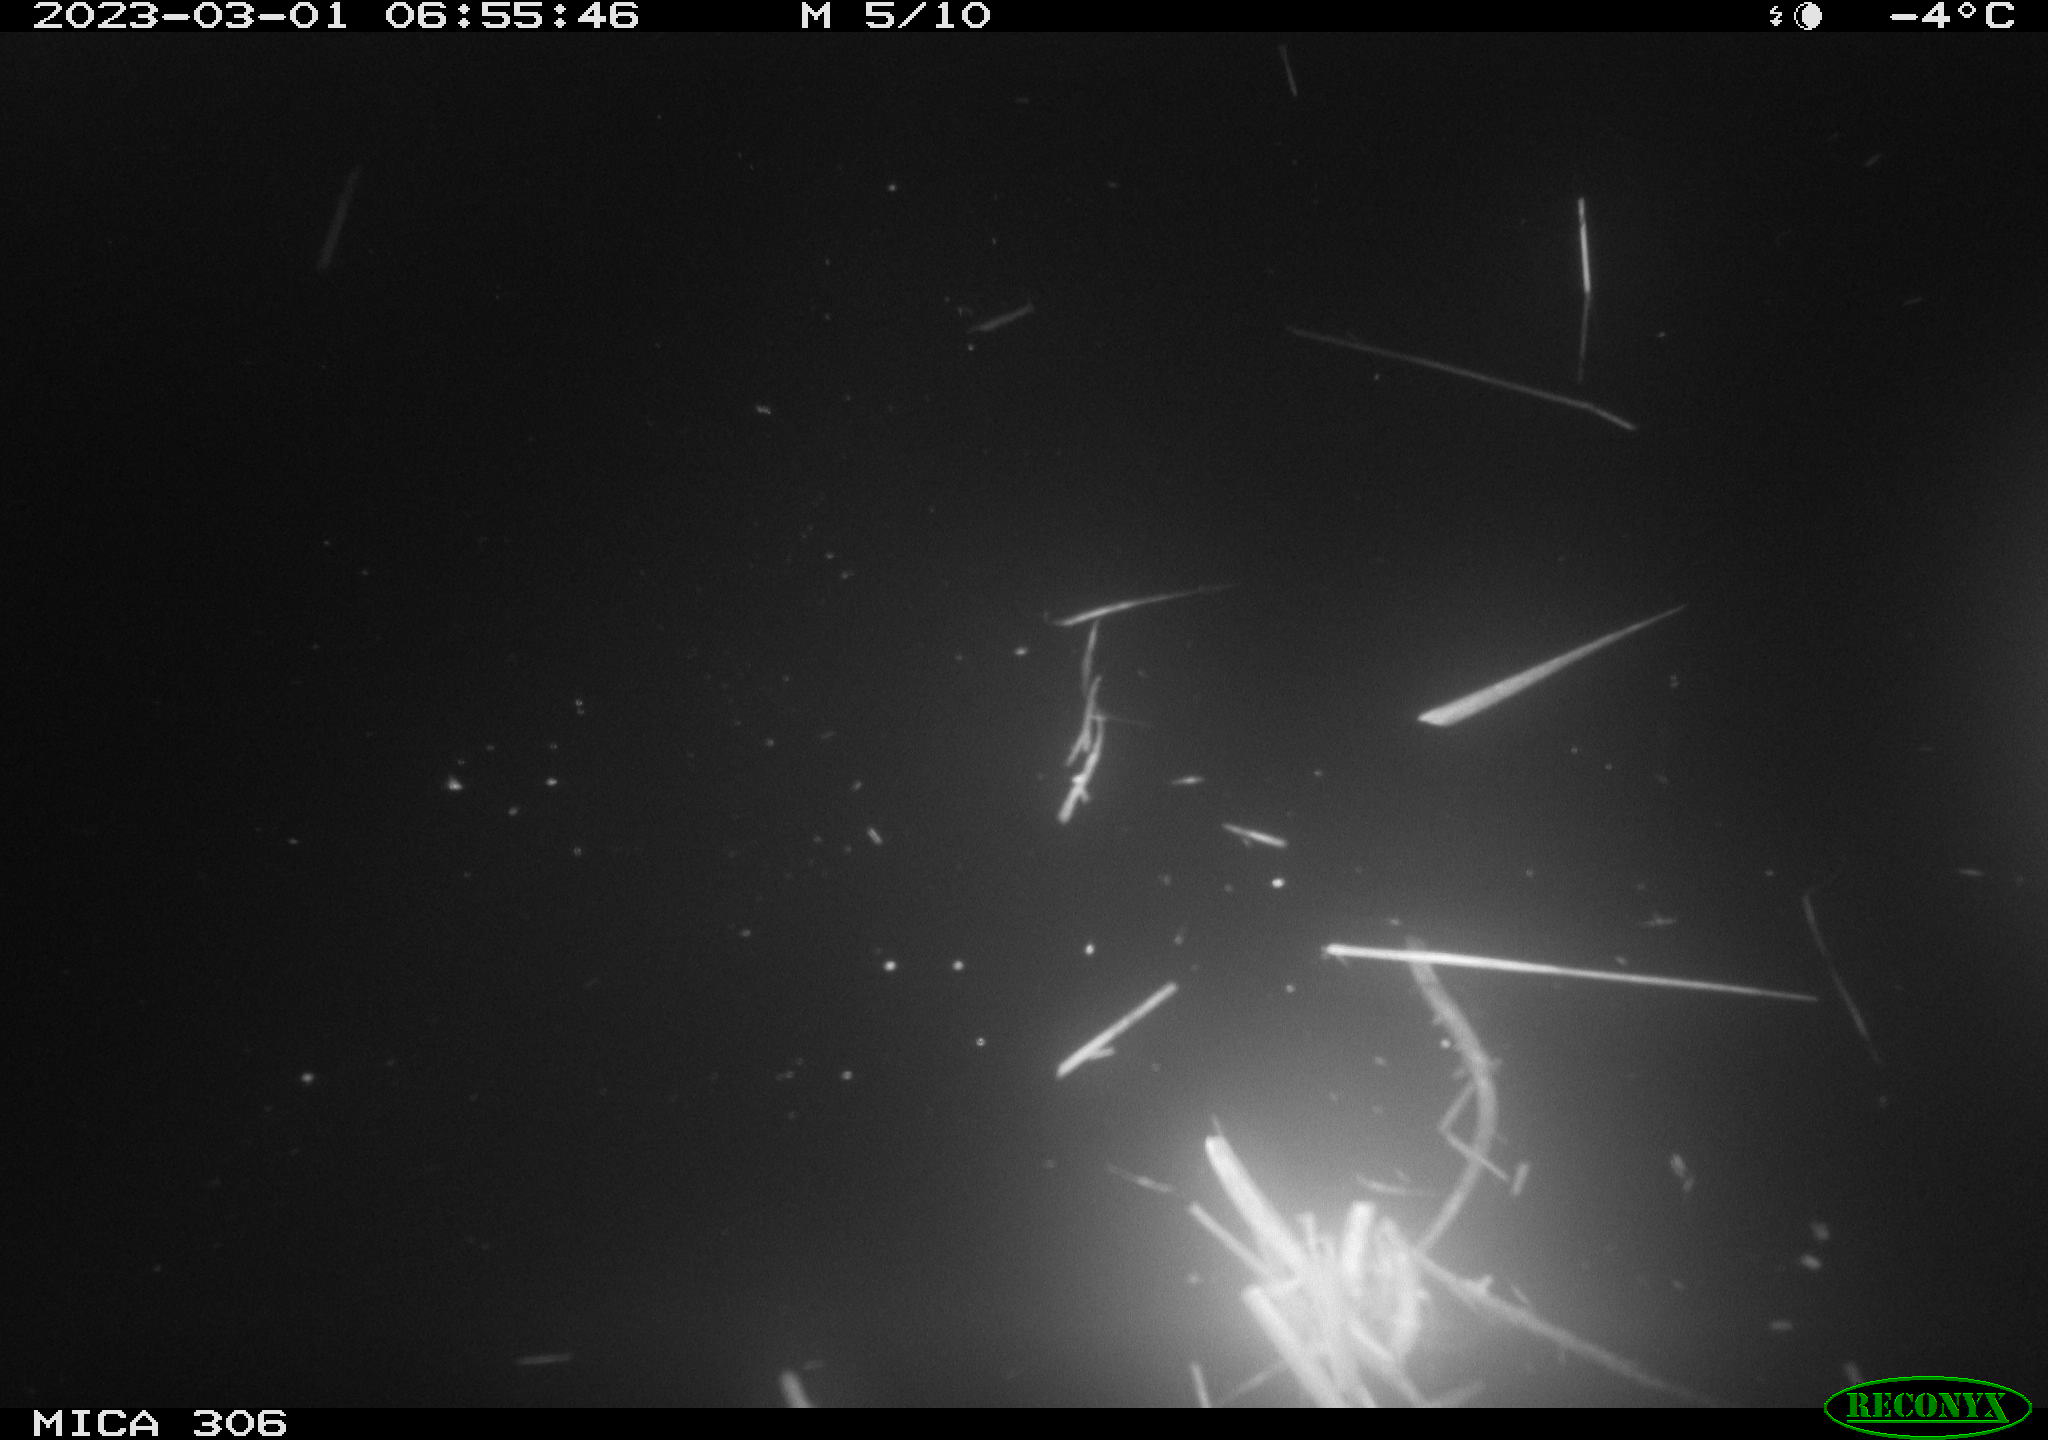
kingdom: Animalia
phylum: Chordata
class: Aves
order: Gruiformes
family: Rallidae
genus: Fulica
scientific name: Fulica atra
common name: Eurasian coot
